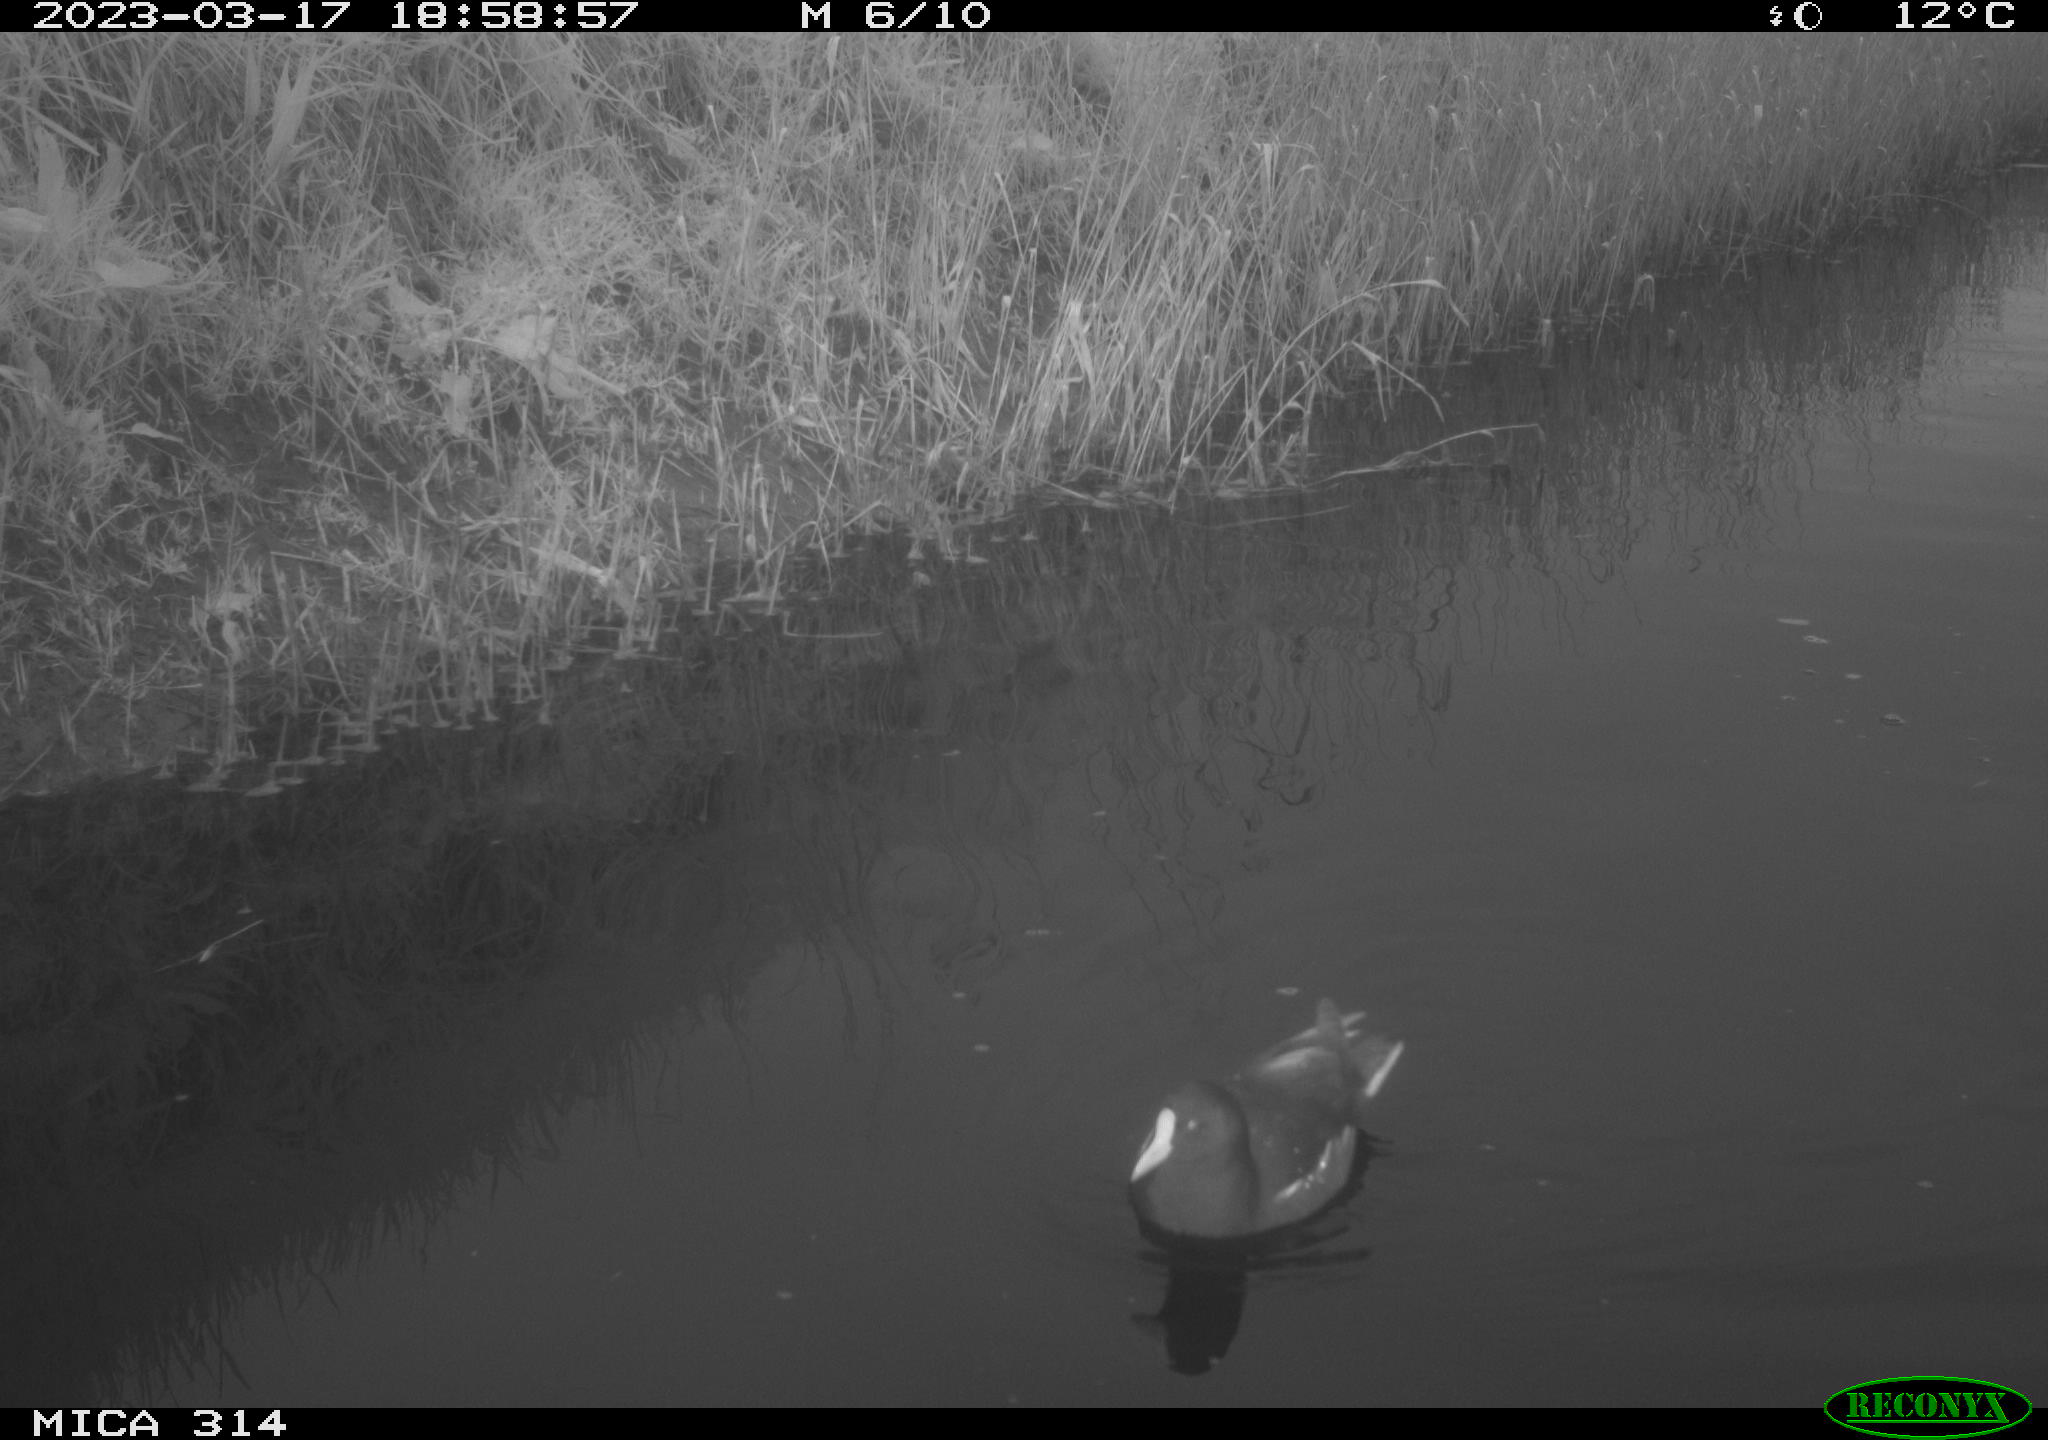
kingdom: Animalia
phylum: Chordata
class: Aves
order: Gruiformes
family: Rallidae
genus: Gallinula
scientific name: Gallinula chloropus
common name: Common moorhen
